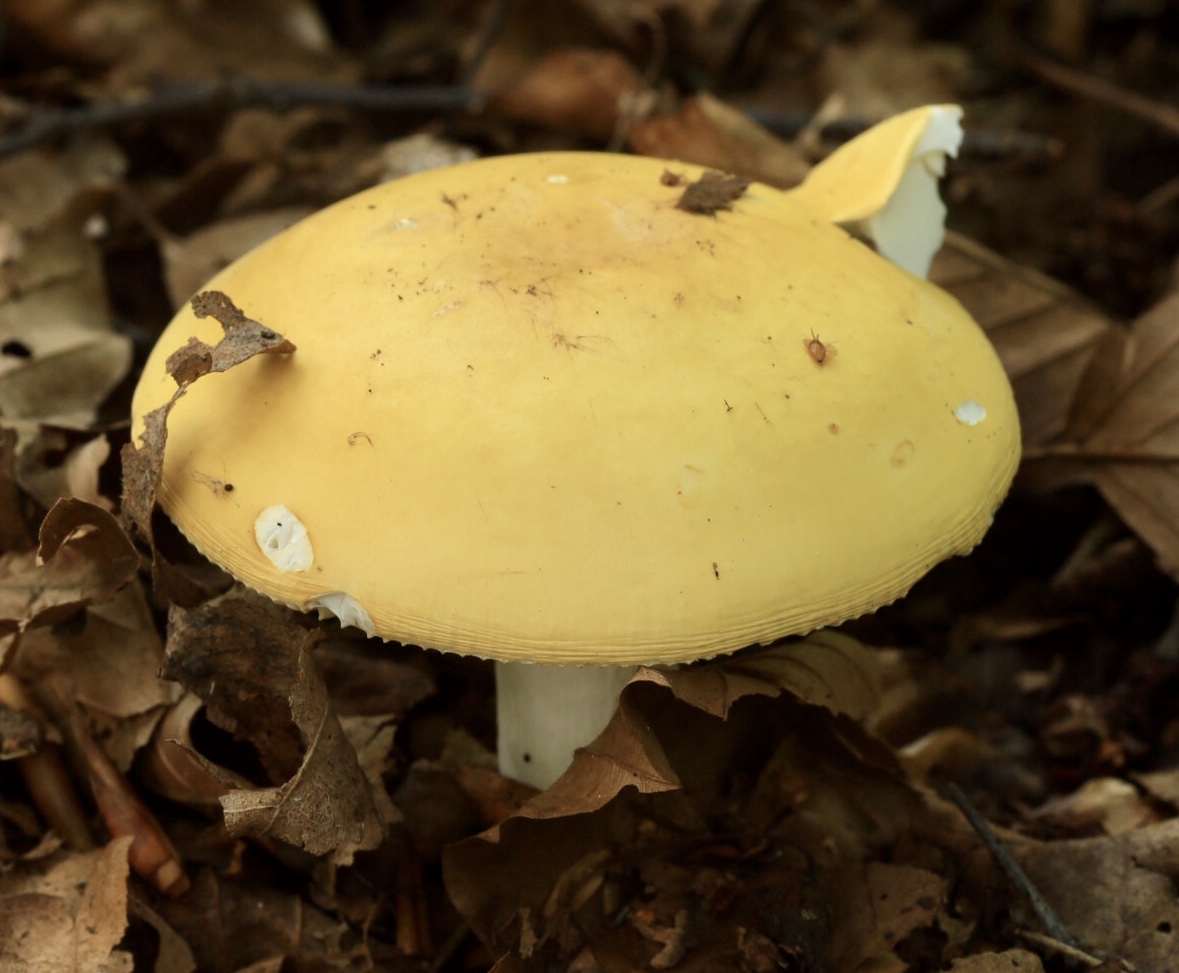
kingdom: Fungi
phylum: Basidiomycota
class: Agaricomycetes
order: Russulales
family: Russulaceae
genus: Russula
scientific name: Russula claroflava
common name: birke-skørhat
